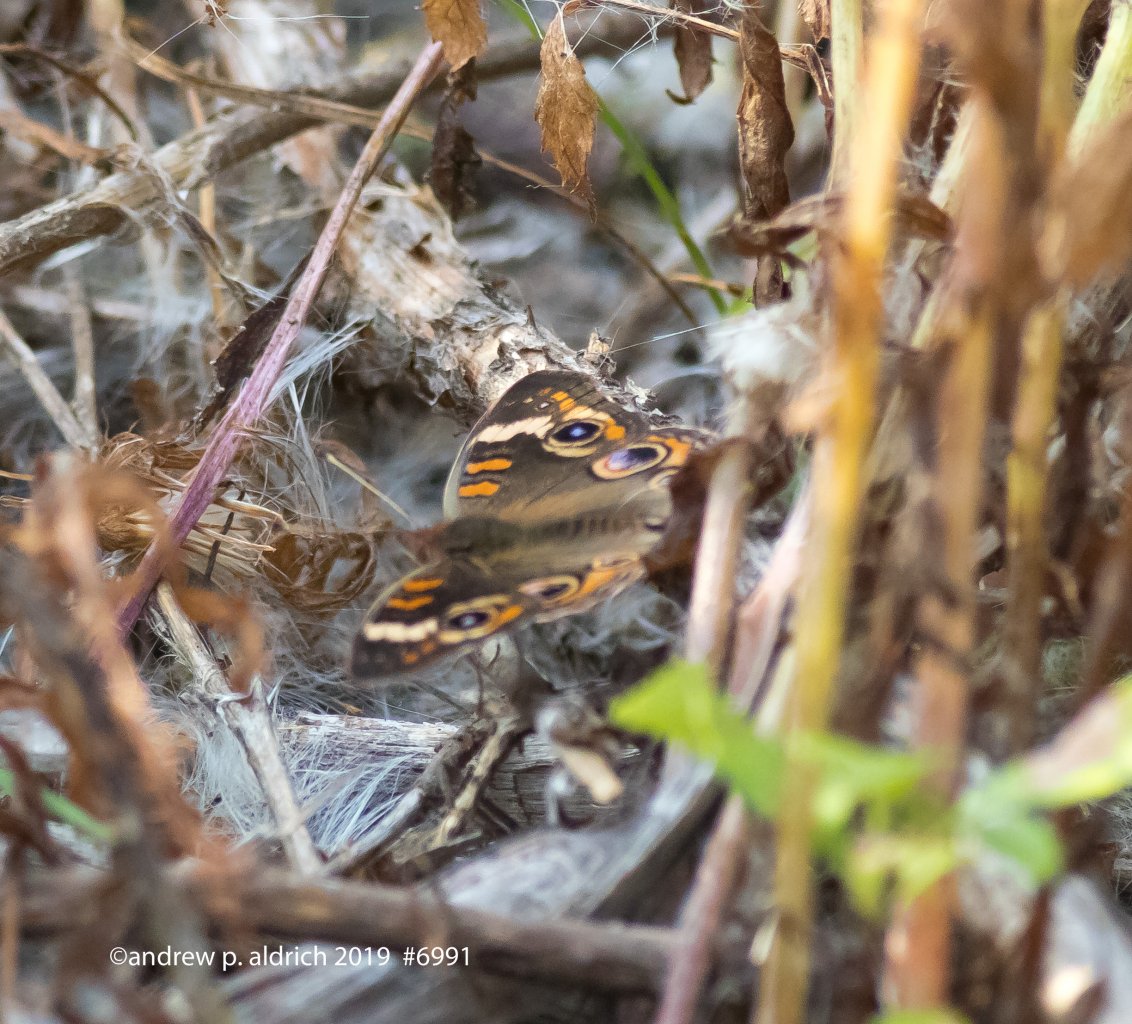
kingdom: Animalia
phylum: Arthropoda
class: Insecta
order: Lepidoptera
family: Nymphalidae
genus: Junonia
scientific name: Junonia coenia
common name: Common Buckeye
